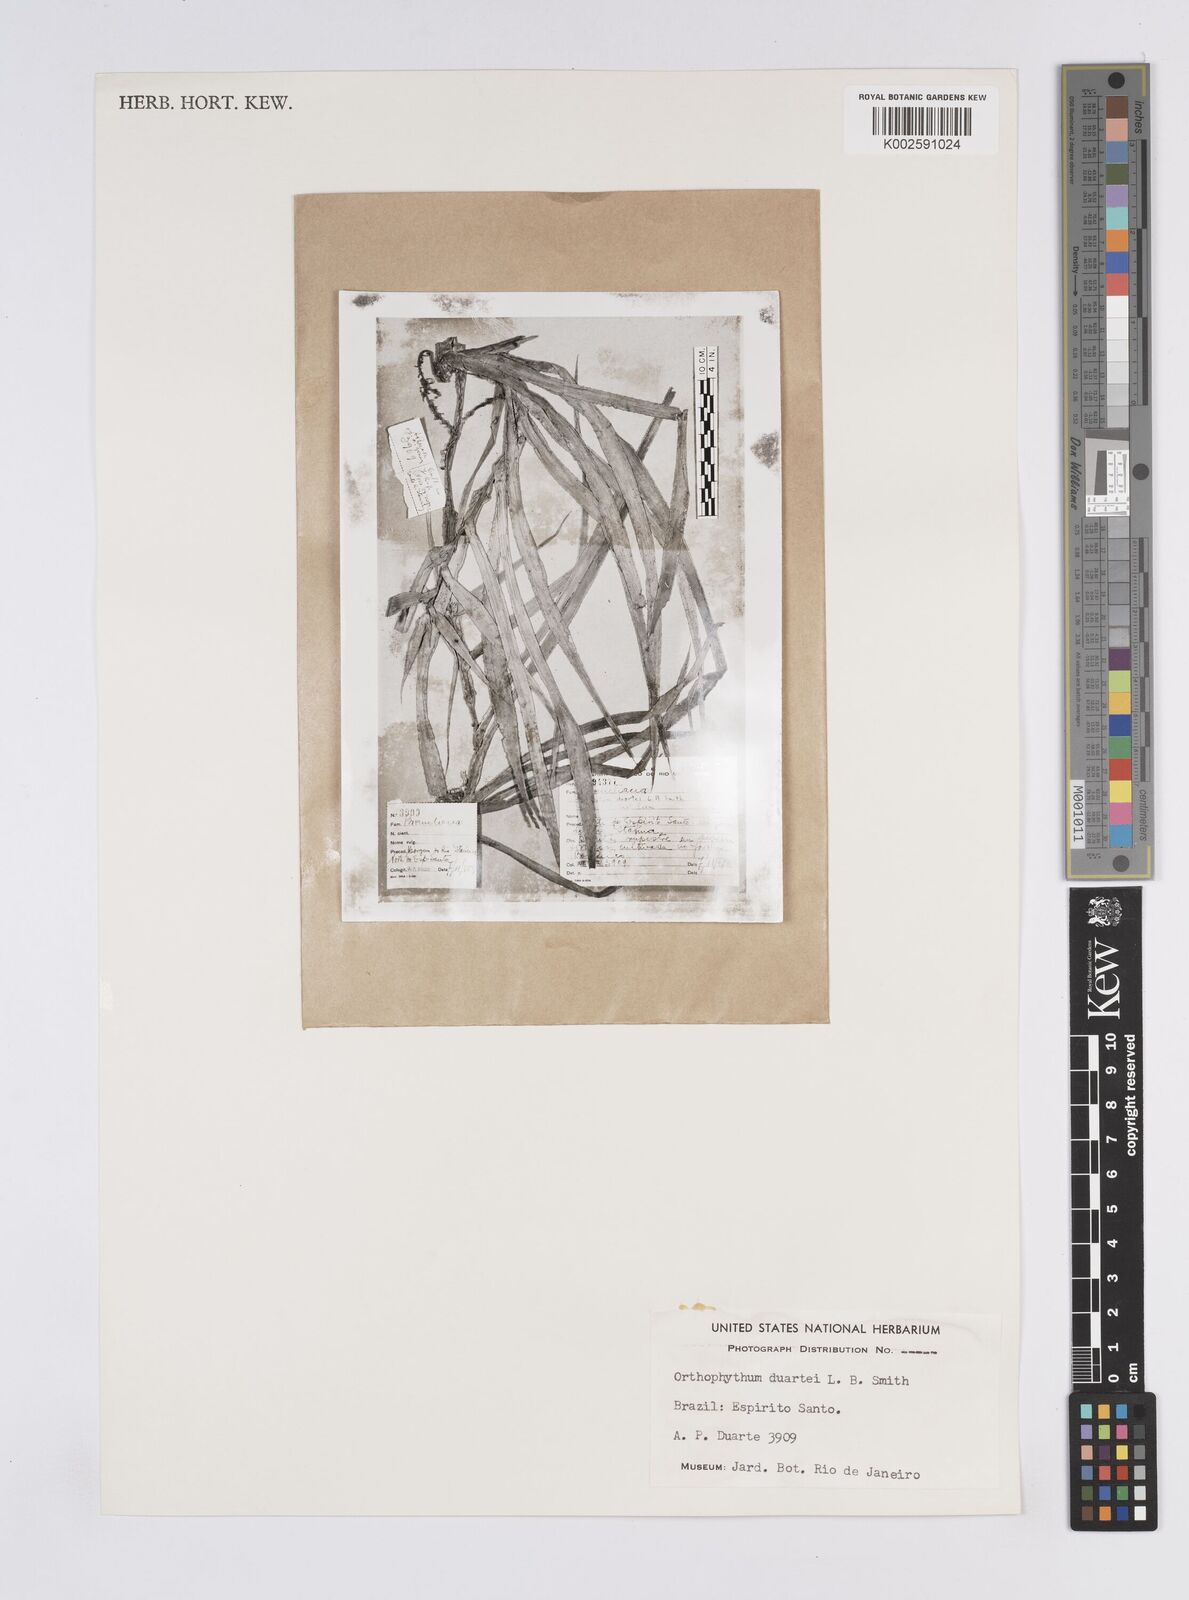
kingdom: Plantae
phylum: Tracheophyta
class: Liliopsida
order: Poales
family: Bromeliaceae
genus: Orthophytum
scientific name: Orthophytum duartei
